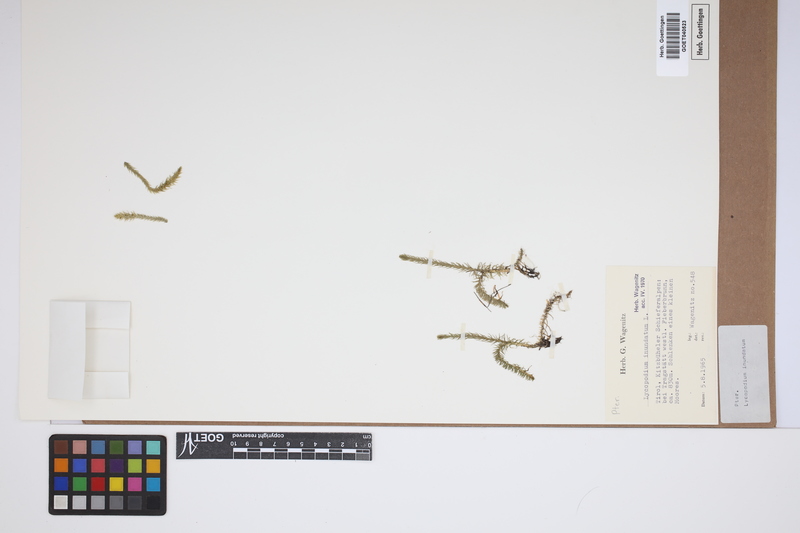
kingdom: Plantae
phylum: Tracheophyta
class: Lycopodiopsida
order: Lycopodiales
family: Lycopodiaceae
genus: Lycopodiella
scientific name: Lycopodiella inundata
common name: Marsh clubmoss
